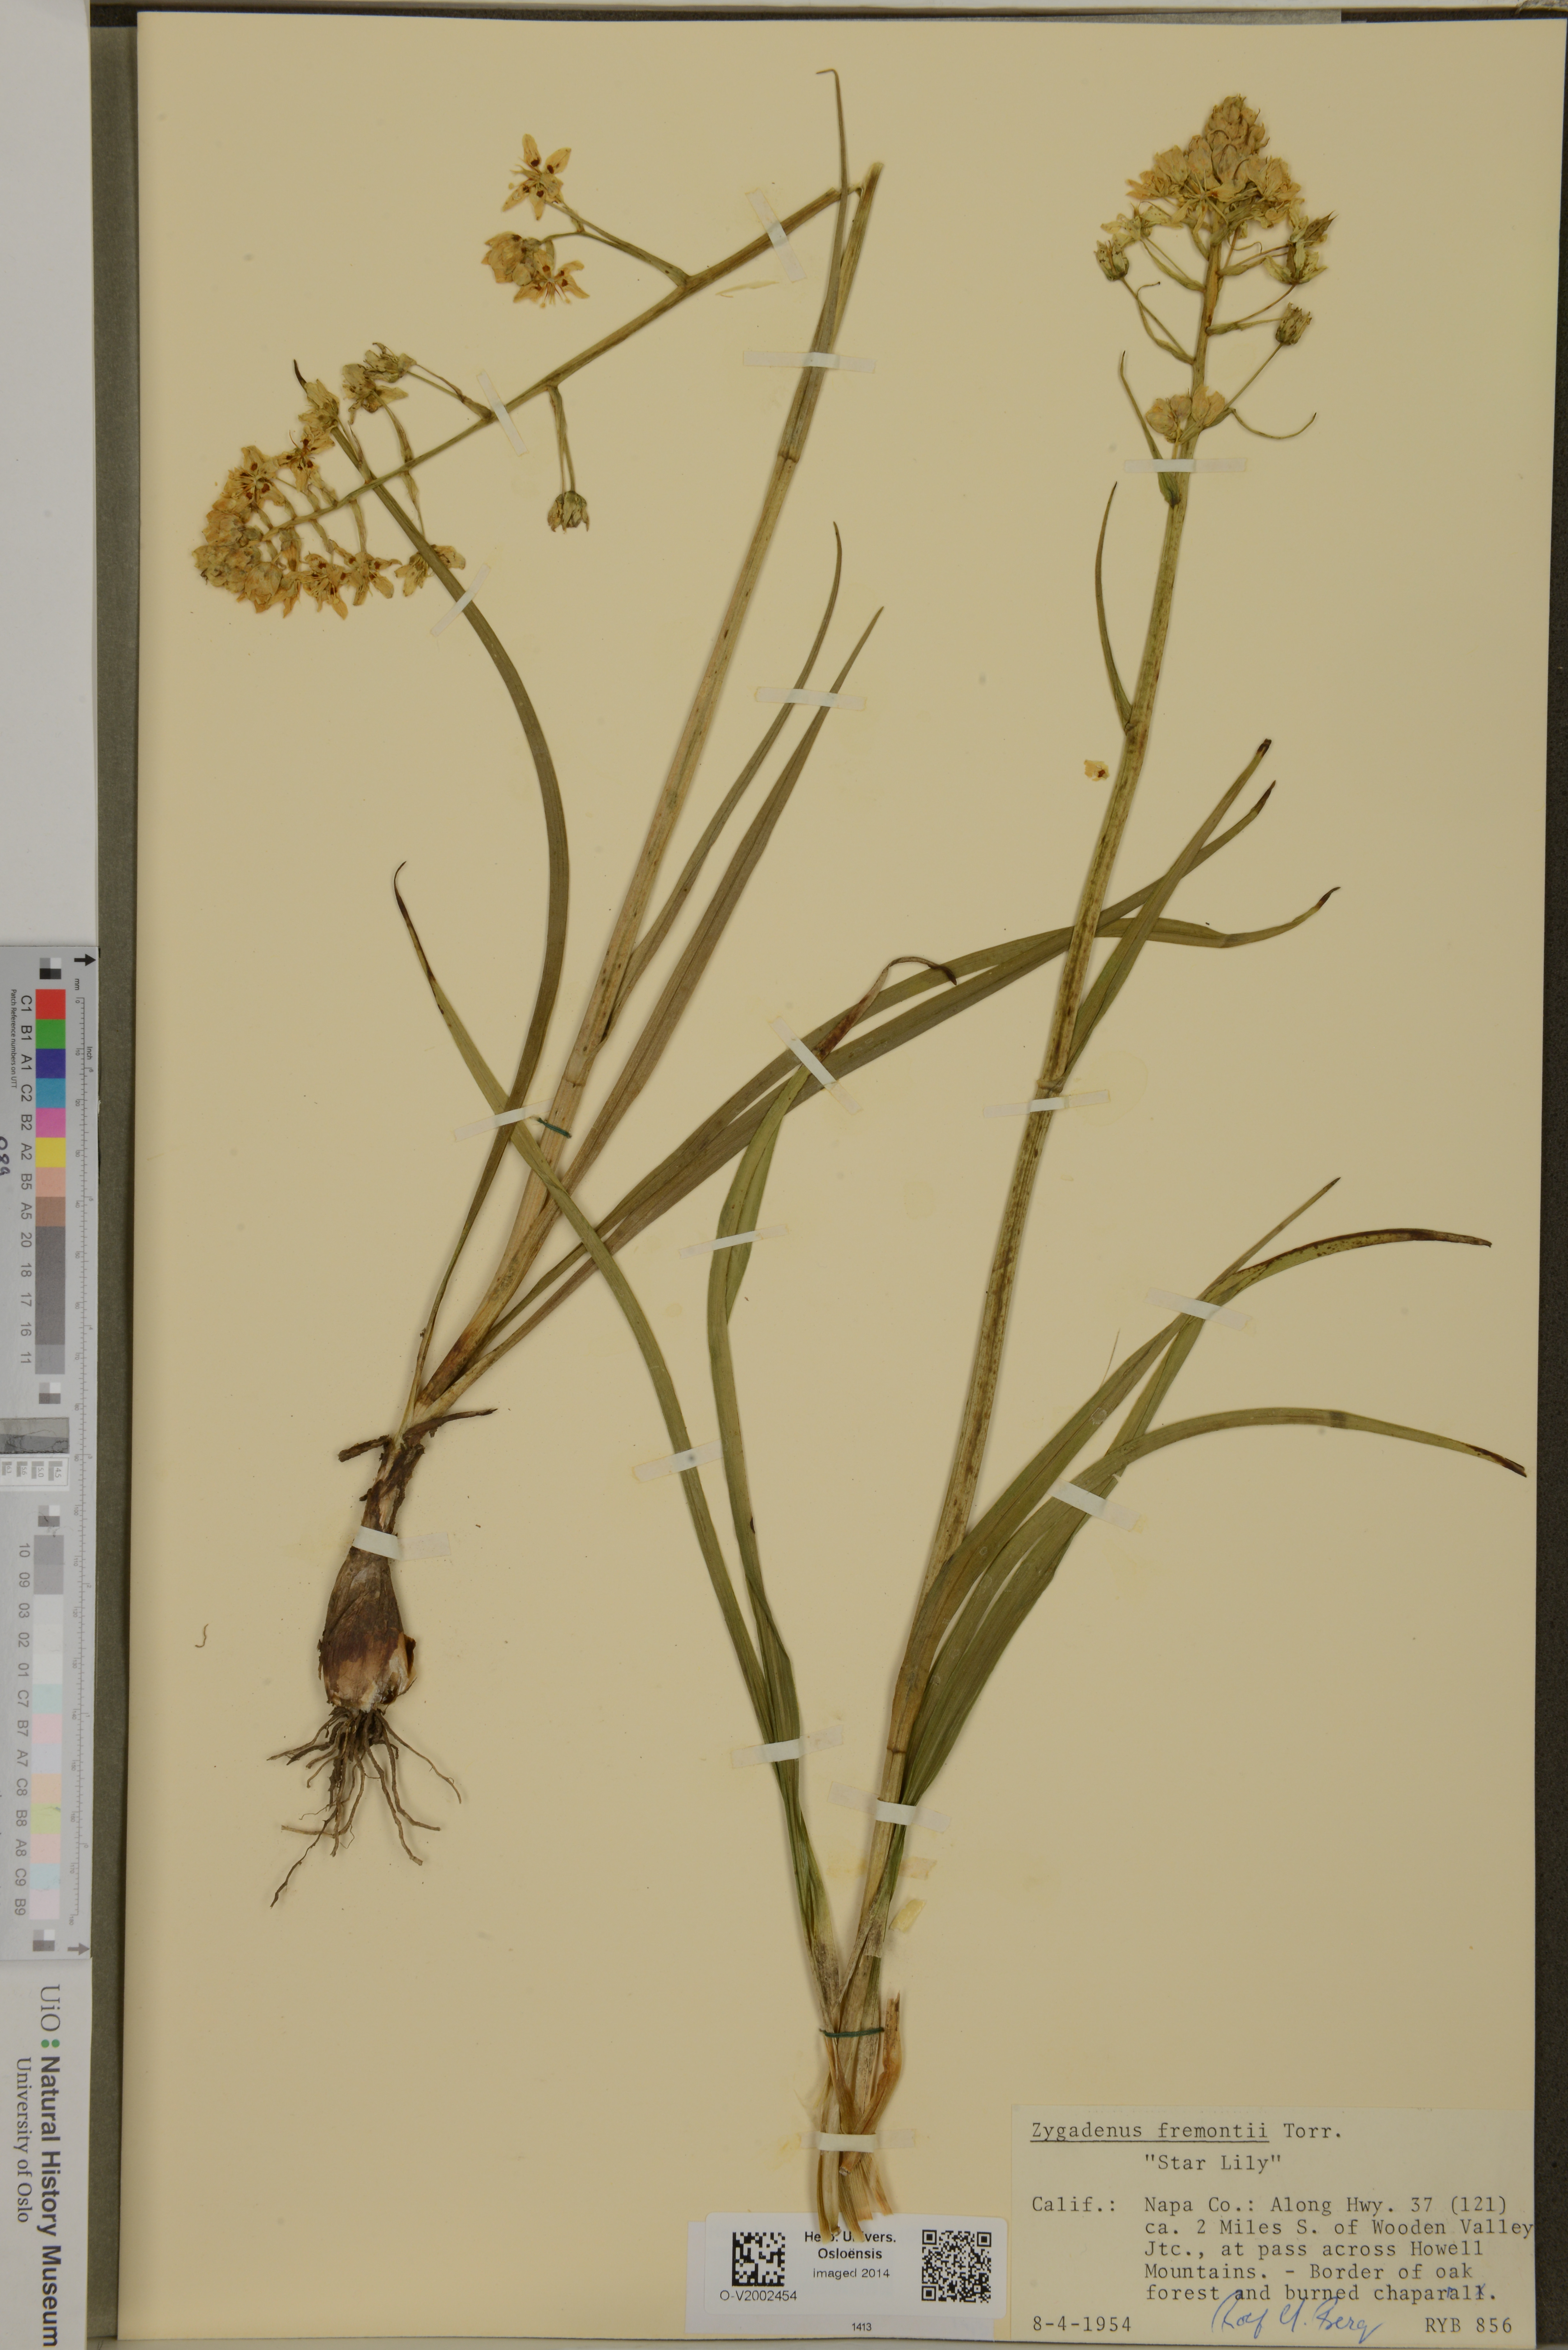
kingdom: Plantae
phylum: Tracheophyta
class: Liliopsida
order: Liliales
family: Melanthiaceae
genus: Toxicoscordion
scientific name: Toxicoscordion fremontii
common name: Fremont's death camas
